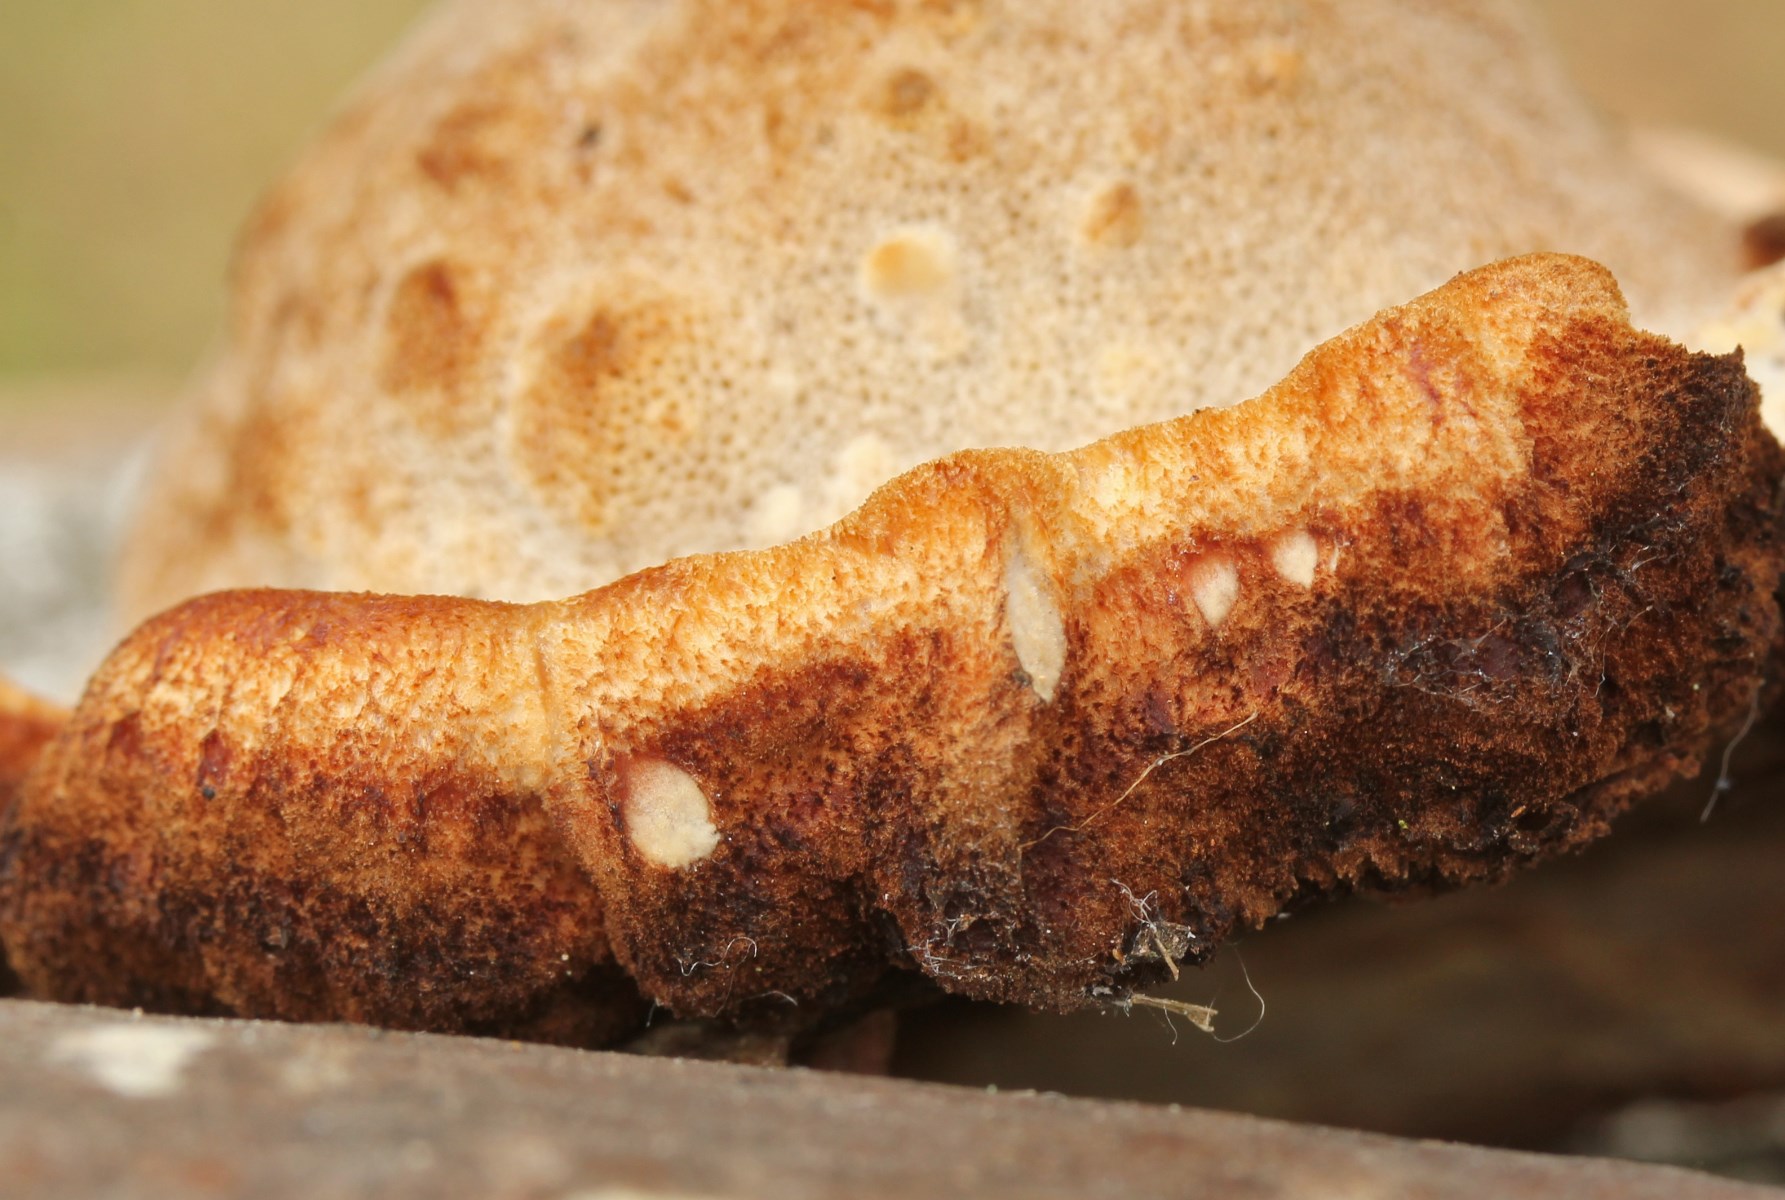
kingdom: Fungi
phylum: Basidiomycota
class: Agaricomycetes
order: Polyporales
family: Ischnodermataceae
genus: Ischnoderma
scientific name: Ischnoderma benzoinum
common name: gran-tjæreporesvamp
